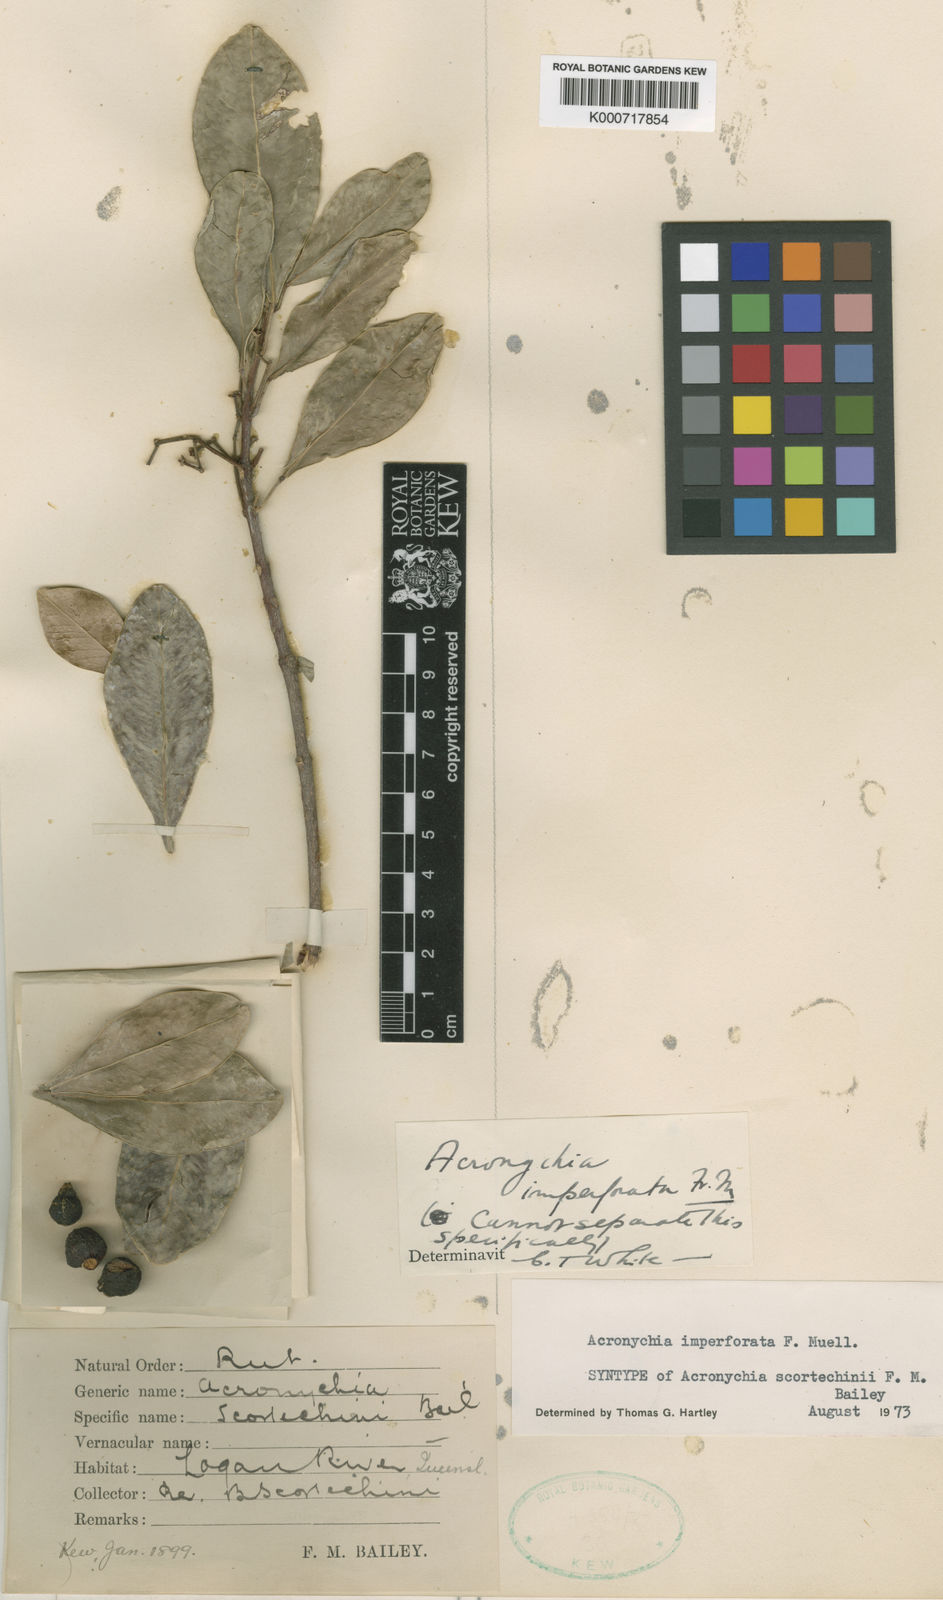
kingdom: Plantae
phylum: Tracheophyta
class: Magnoliopsida
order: Sapindales
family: Rutaceae
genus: Acronychia
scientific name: Acronychia imperforata
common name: Beach acronychia
